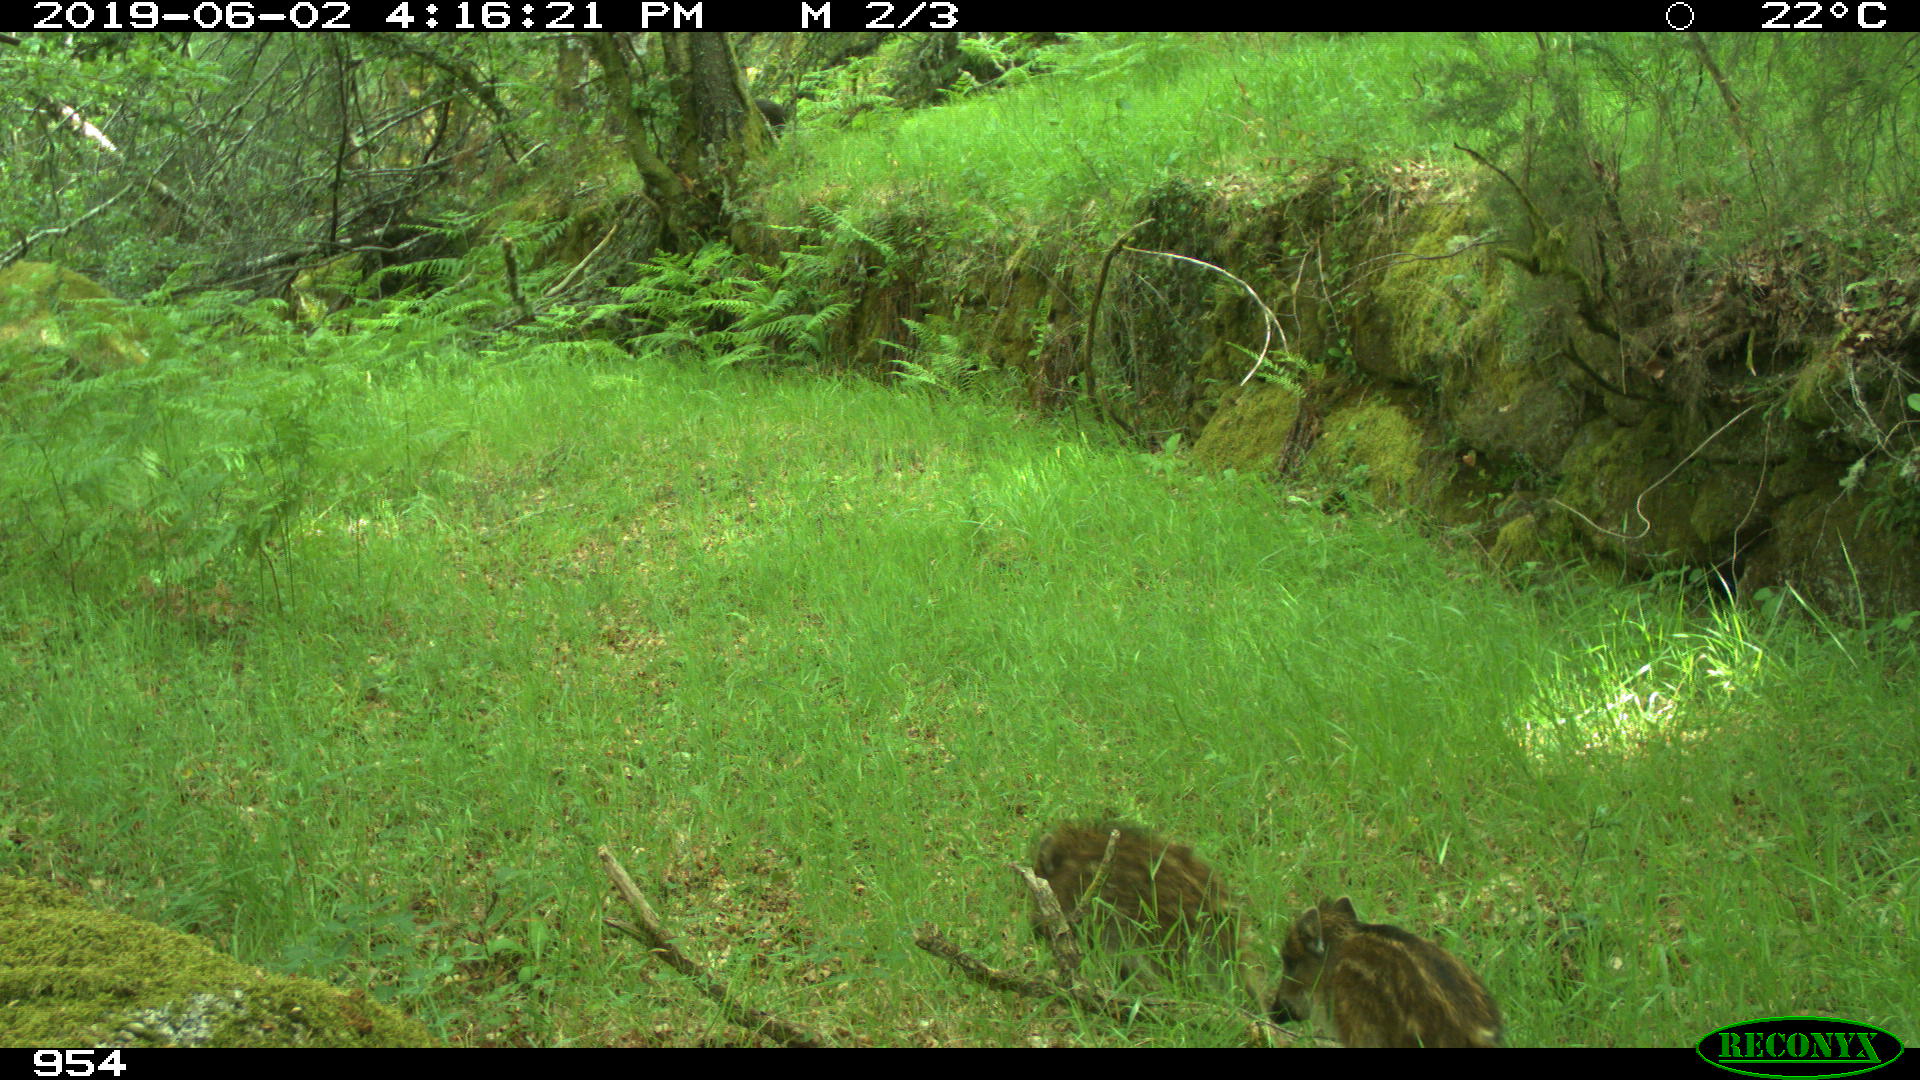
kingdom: Animalia
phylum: Chordata
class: Mammalia
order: Artiodactyla
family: Suidae
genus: Sus
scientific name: Sus scrofa
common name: Wild boar
